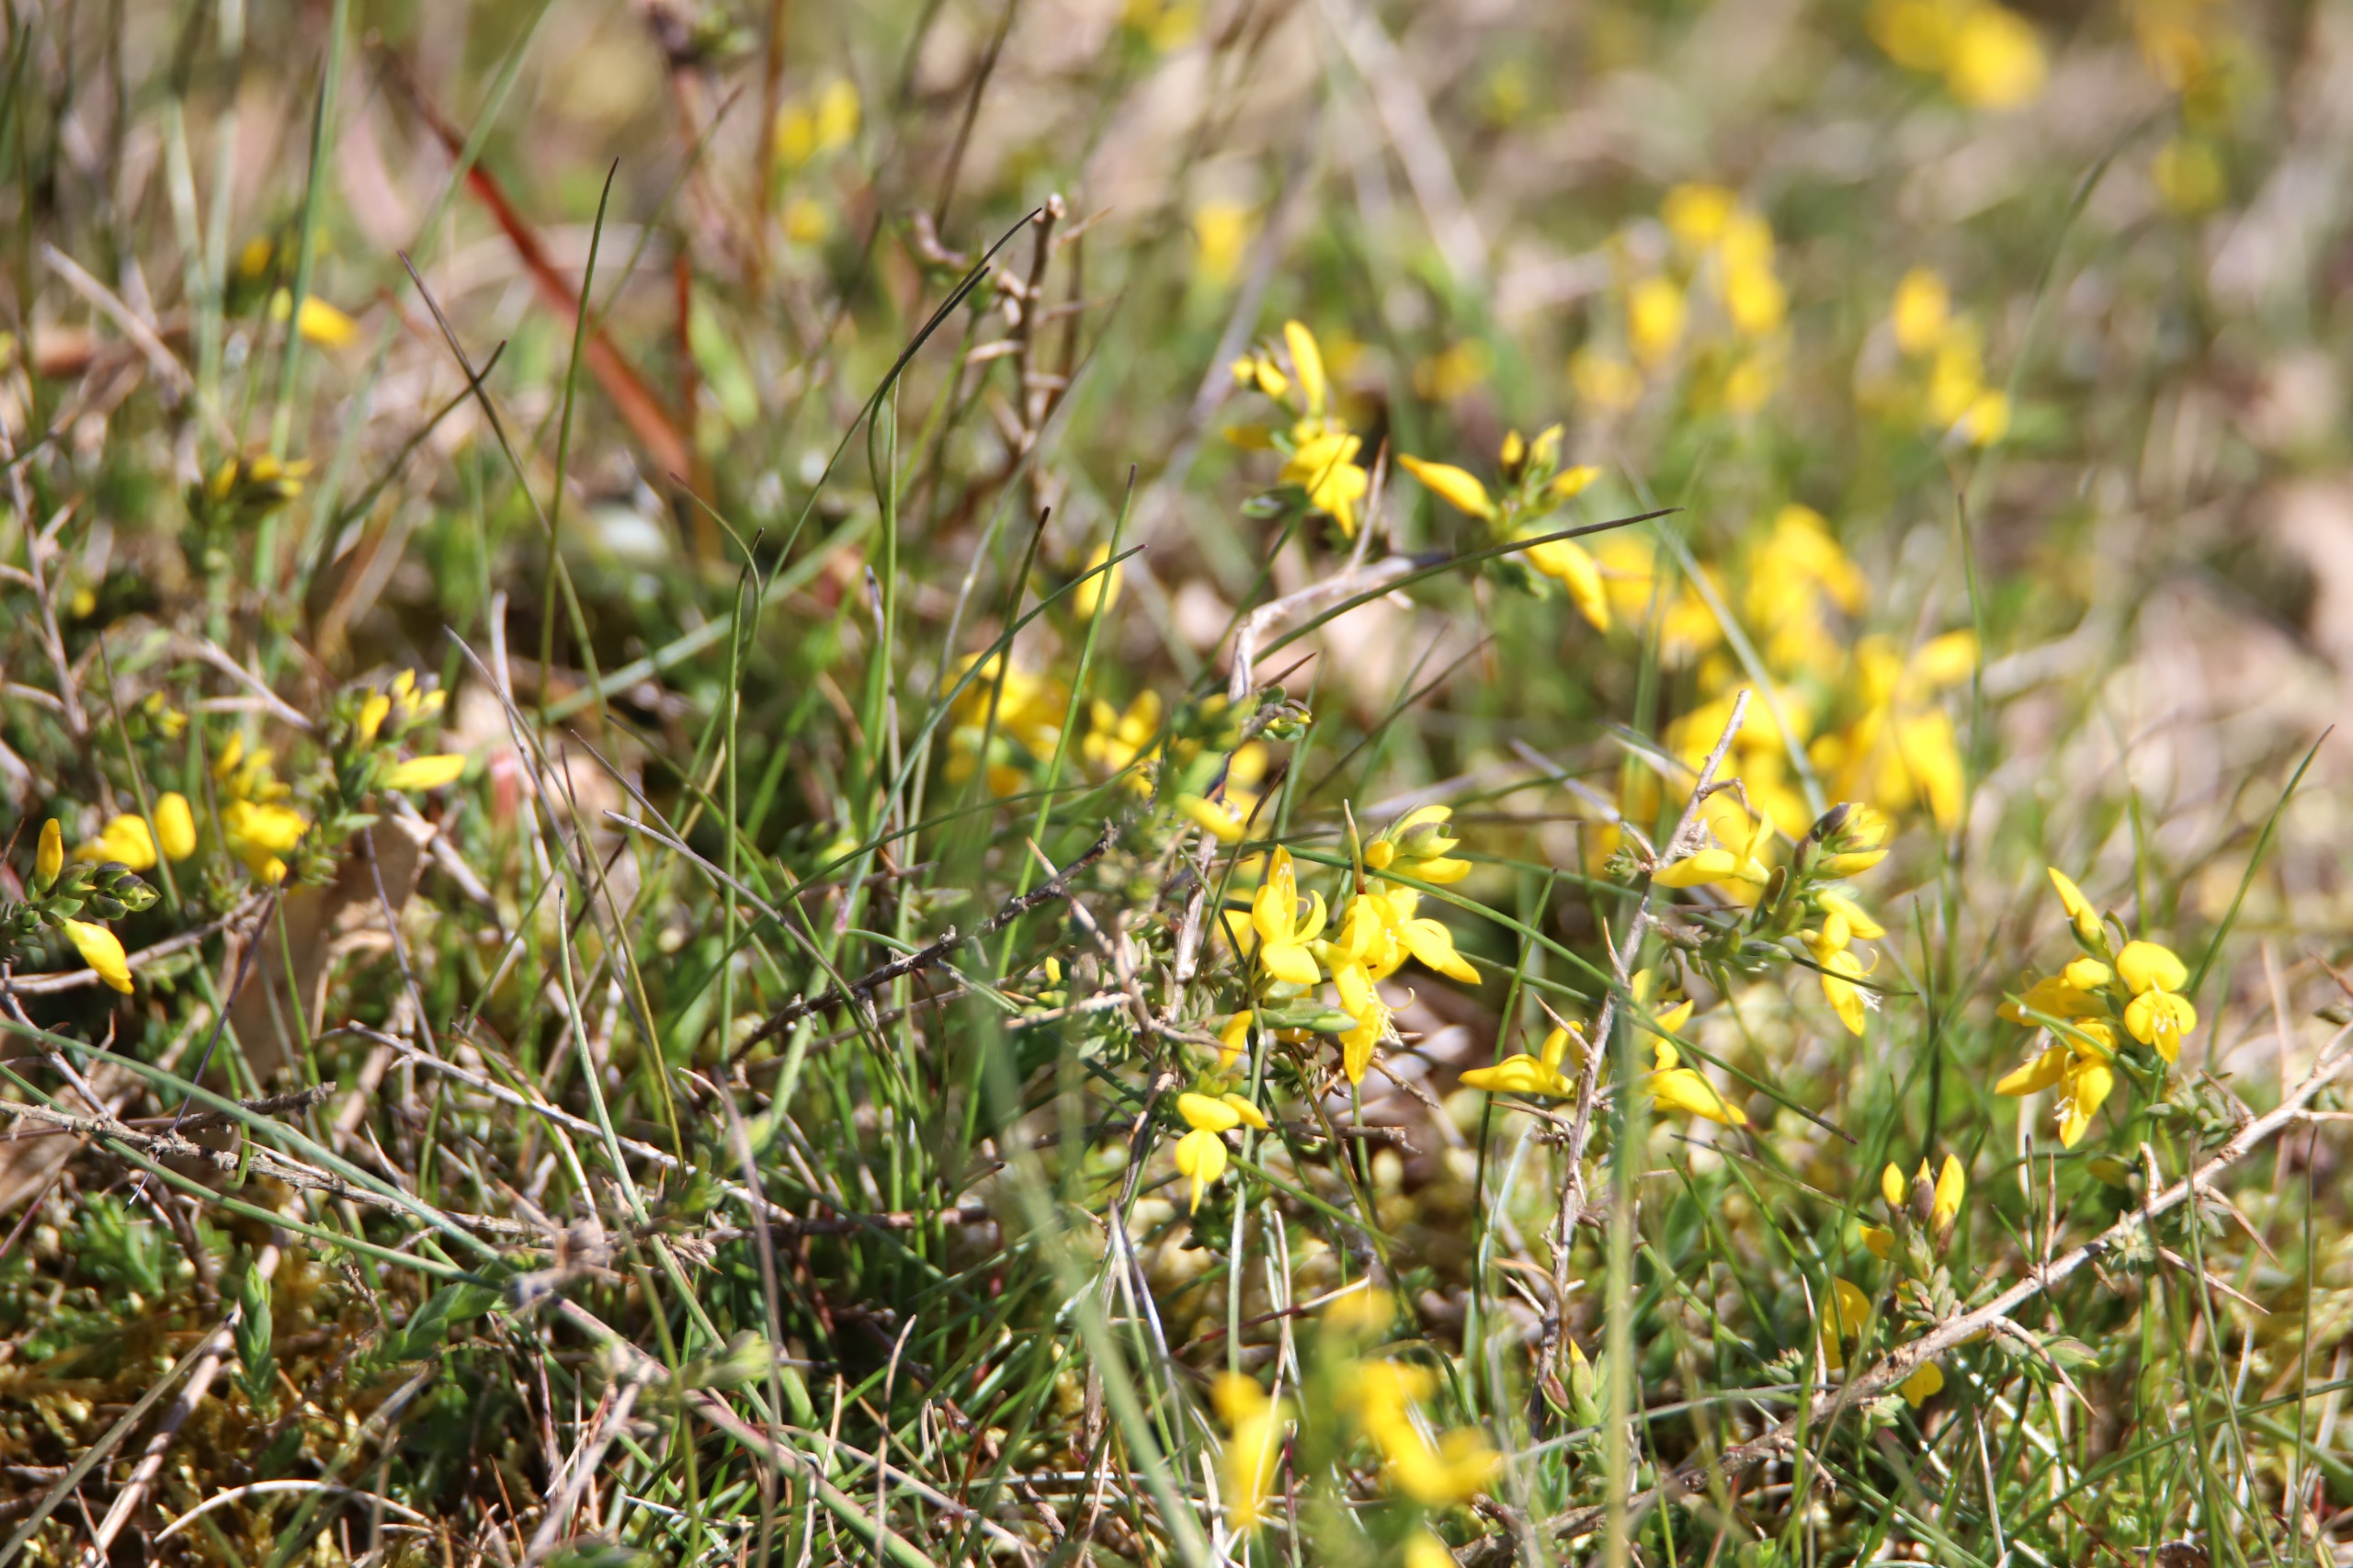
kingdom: Plantae
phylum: Tracheophyta
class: Magnoliopsida
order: Fabales
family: Fabaceae
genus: Genista
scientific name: Genista anglica
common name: Engelsk visse
